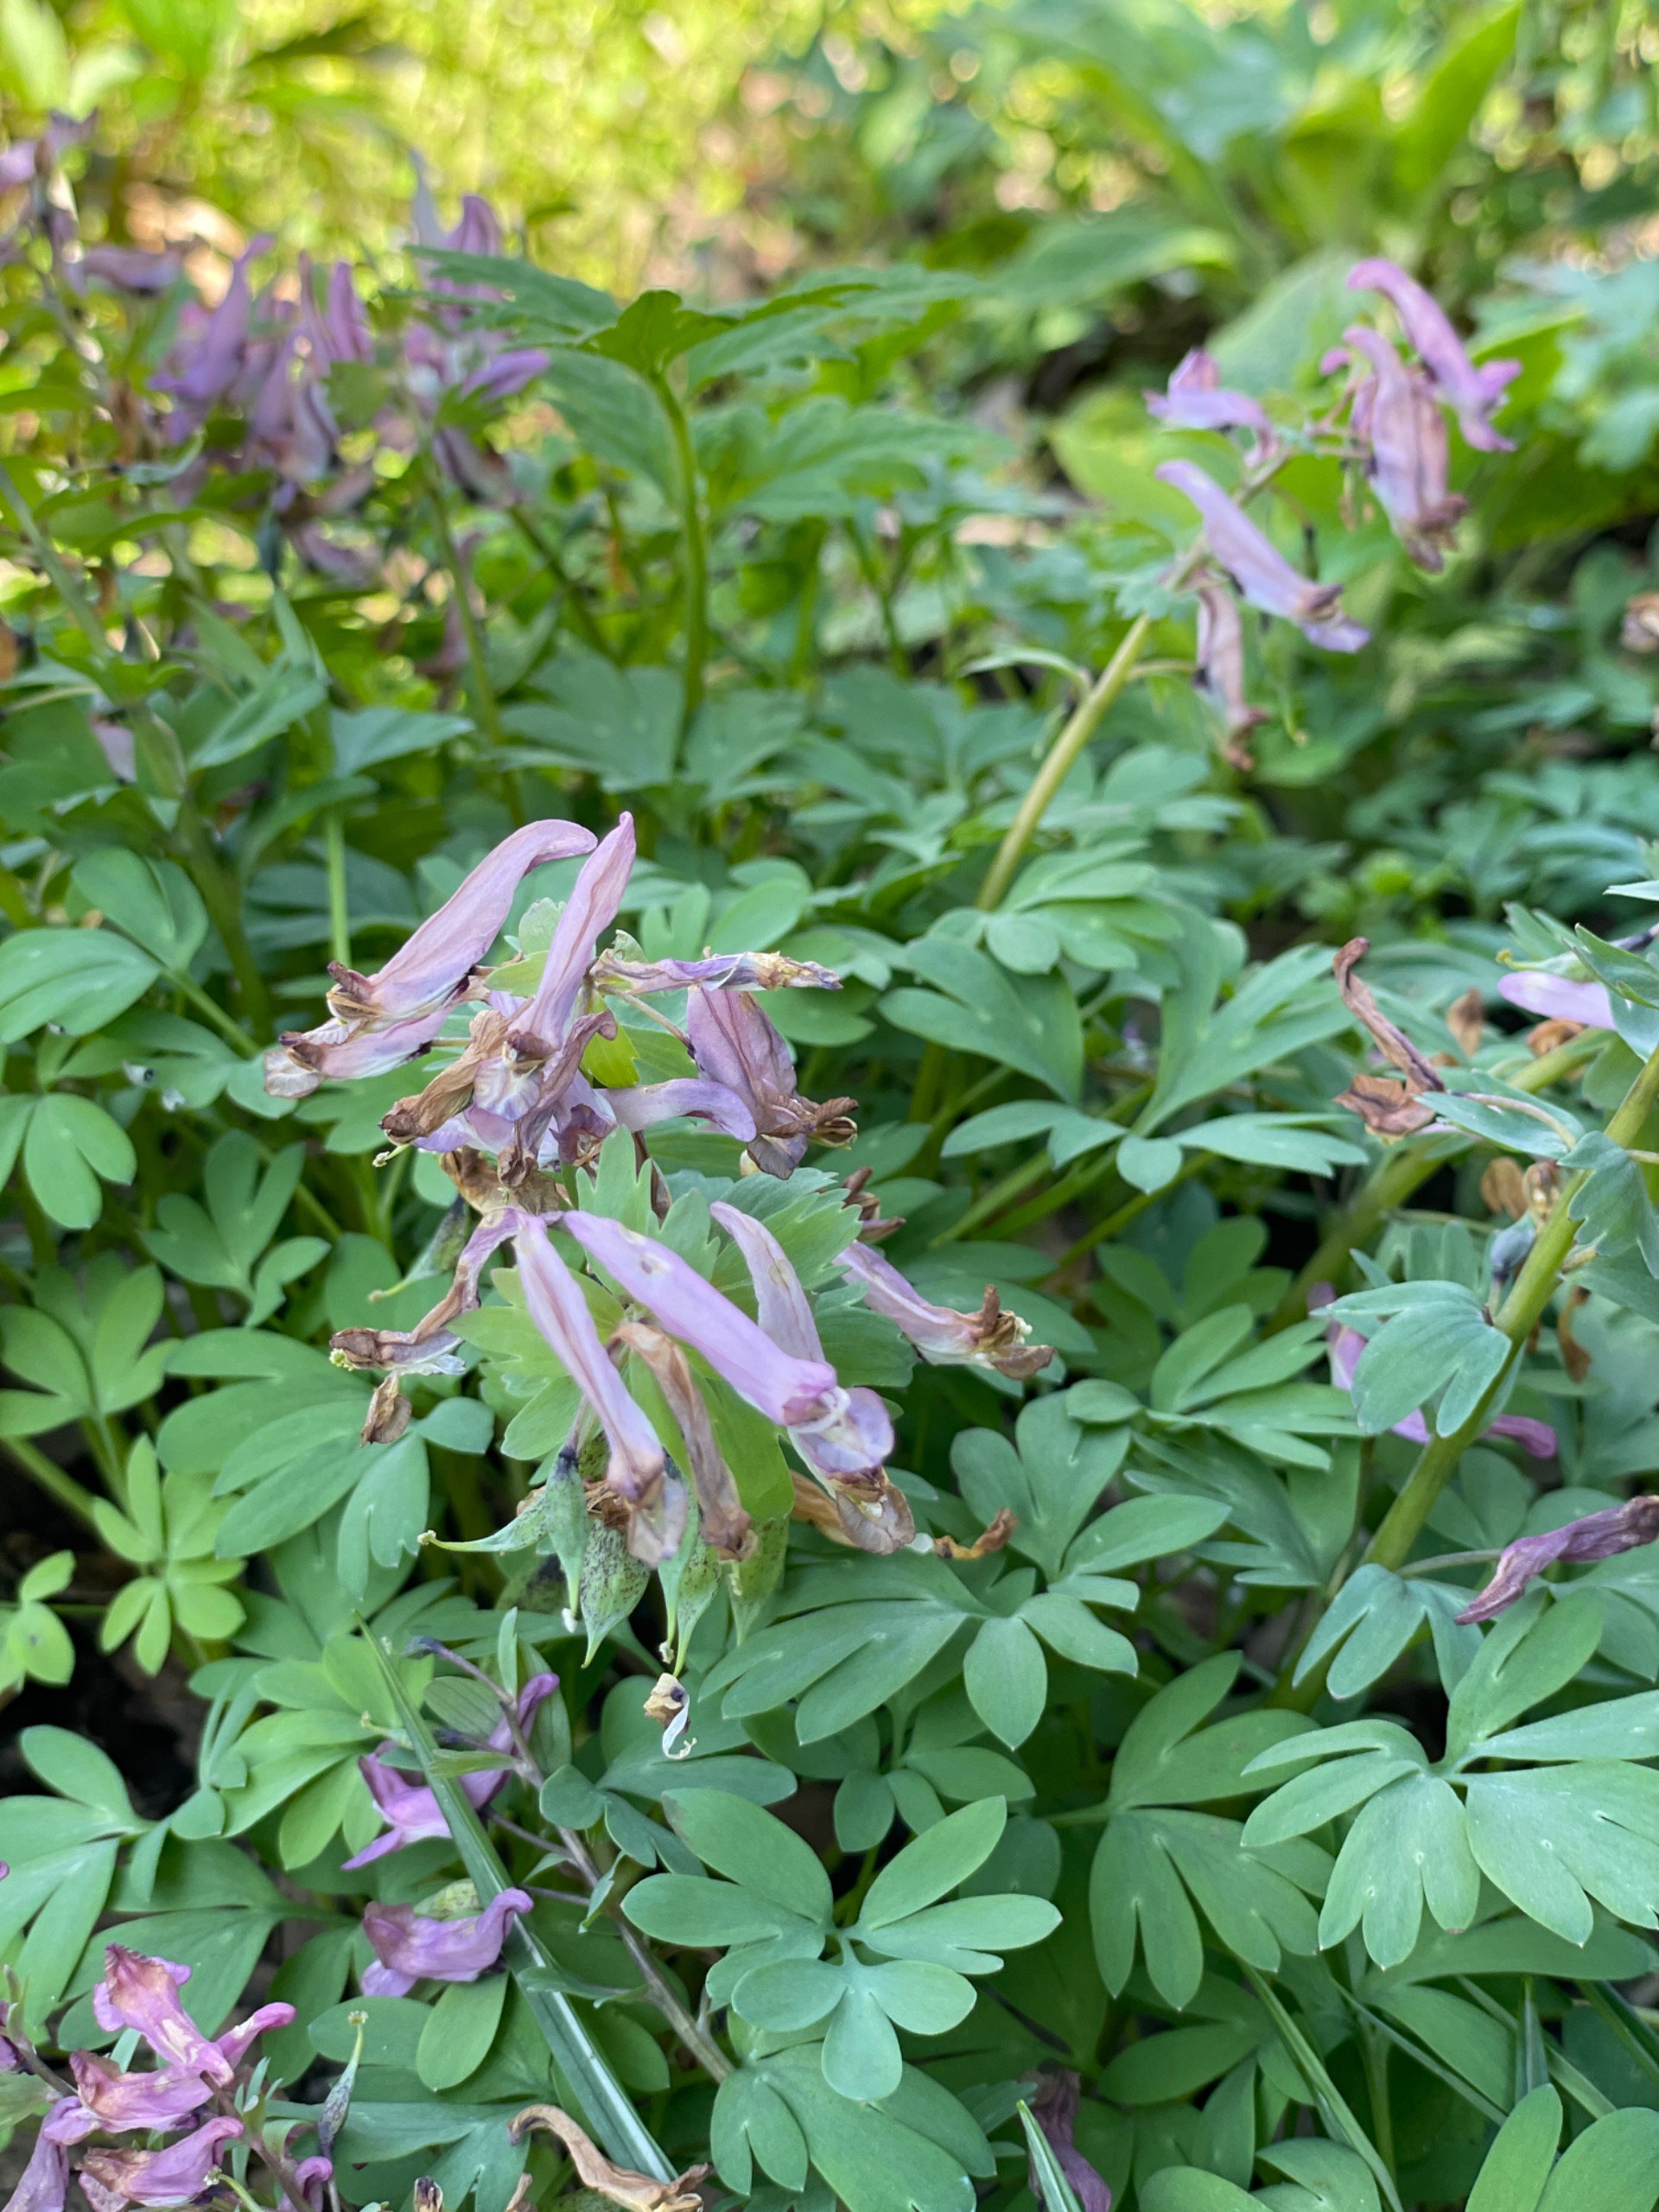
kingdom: Plantae
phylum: Tracheophyta
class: Magnoliopsida
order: Ranunculales
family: Papaveraceae
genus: Corydalis
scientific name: Corydalis solida
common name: Langstilket lærkespore
